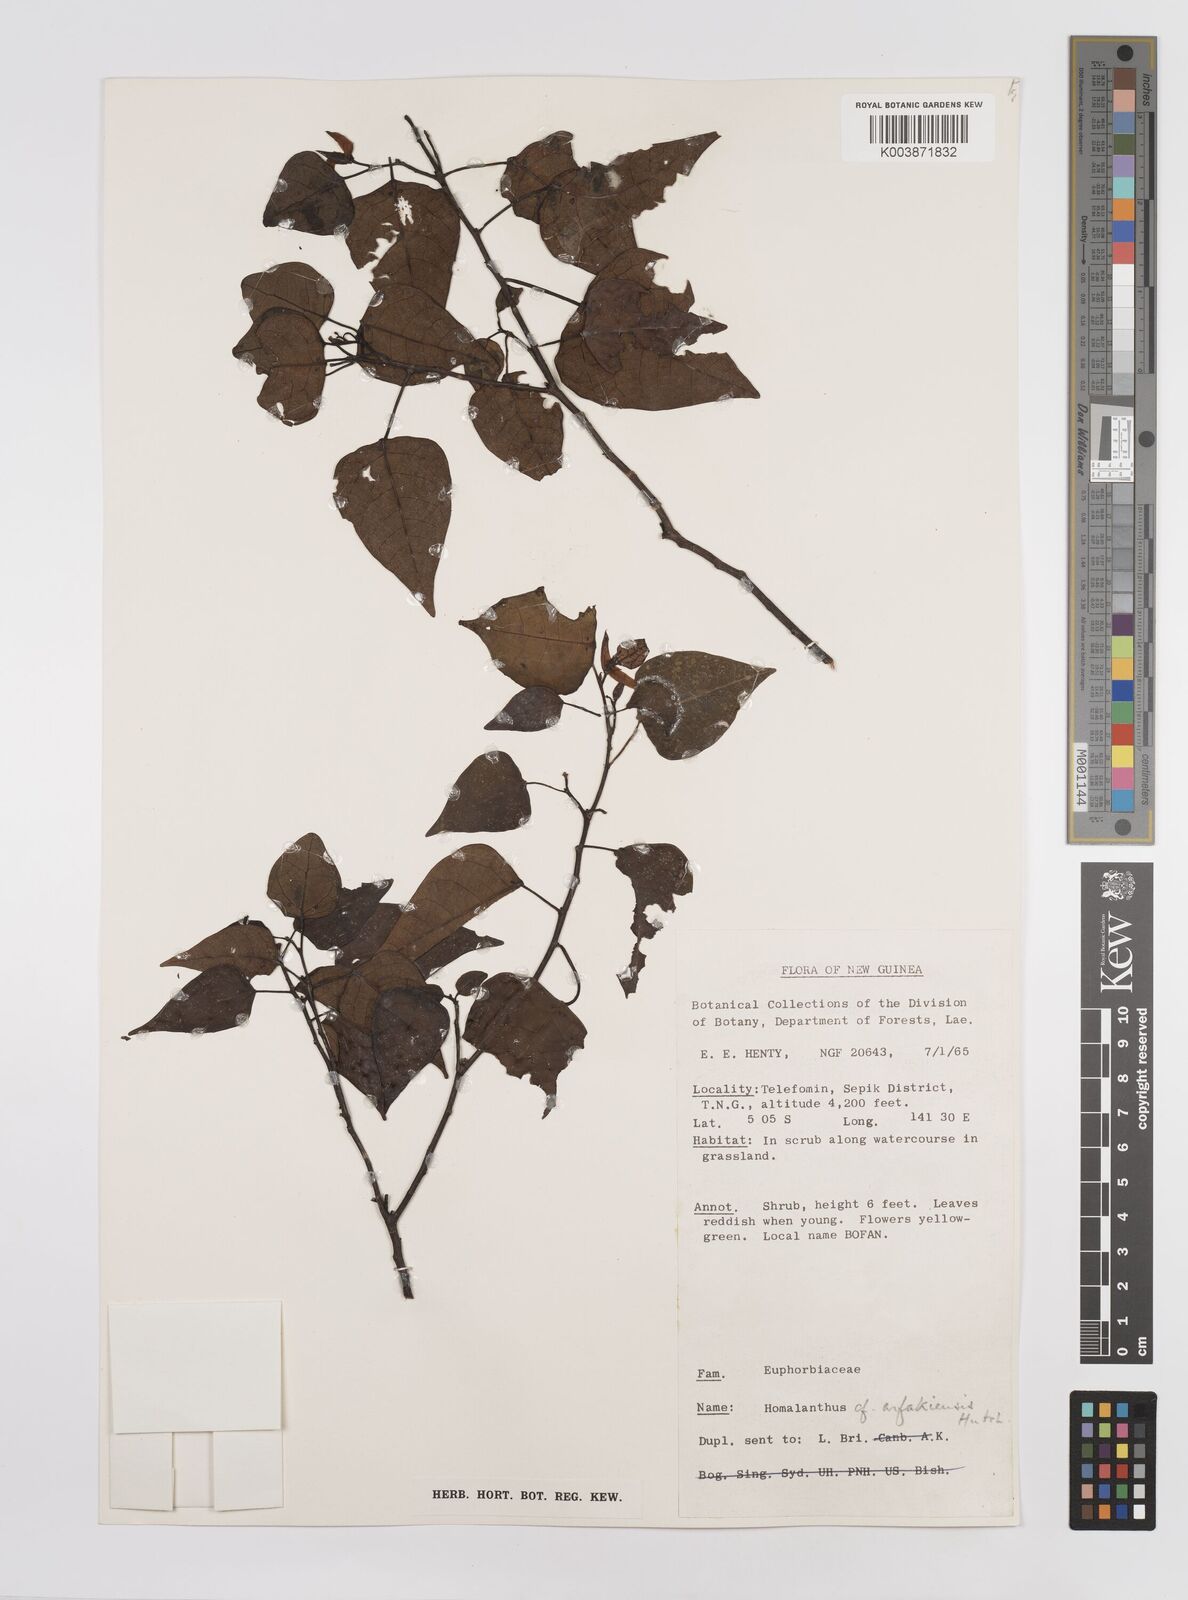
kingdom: Plantae
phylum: Tracheophyta
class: Magnoliopsida
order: Malpighiales
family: Euphorbiaceae
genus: Homalanthus
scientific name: Homalanthus nervosus
